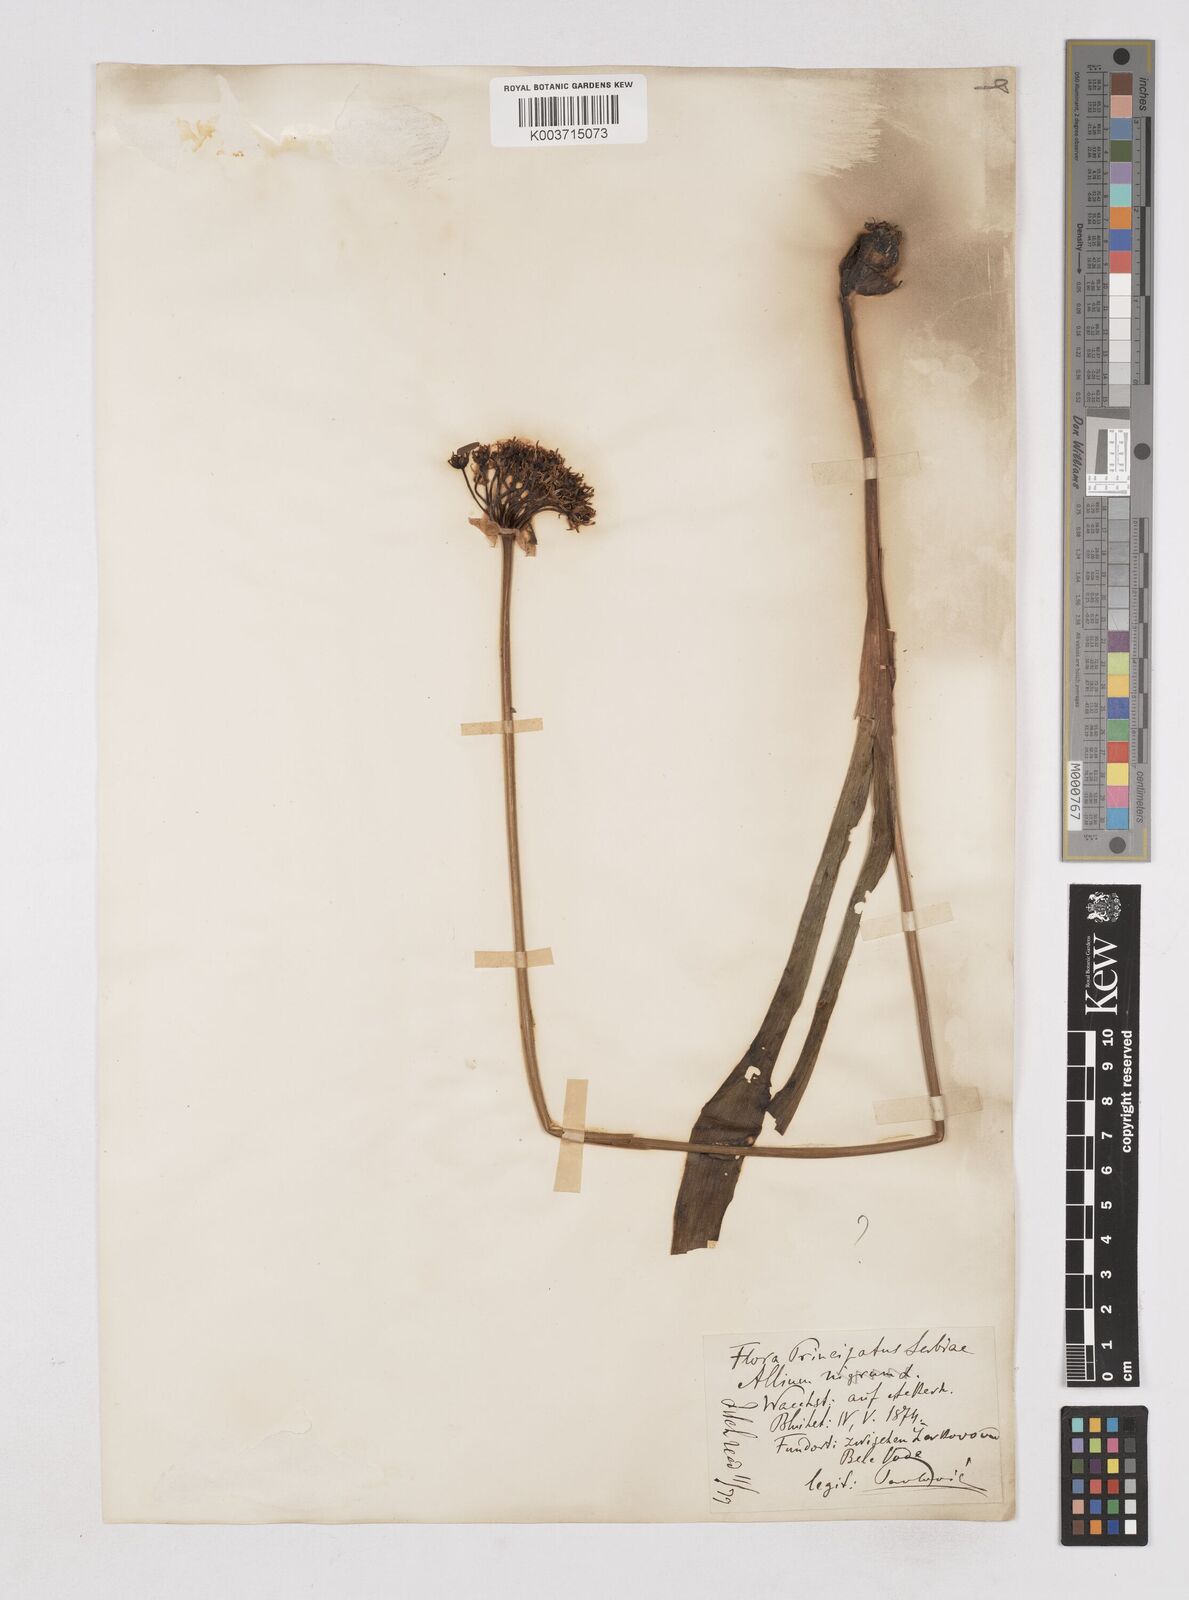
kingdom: Plantae
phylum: Tracheophyta
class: Liliopsida
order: Asparagales
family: Amaryllidaceae
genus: Allium
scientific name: Allium cyrilli
